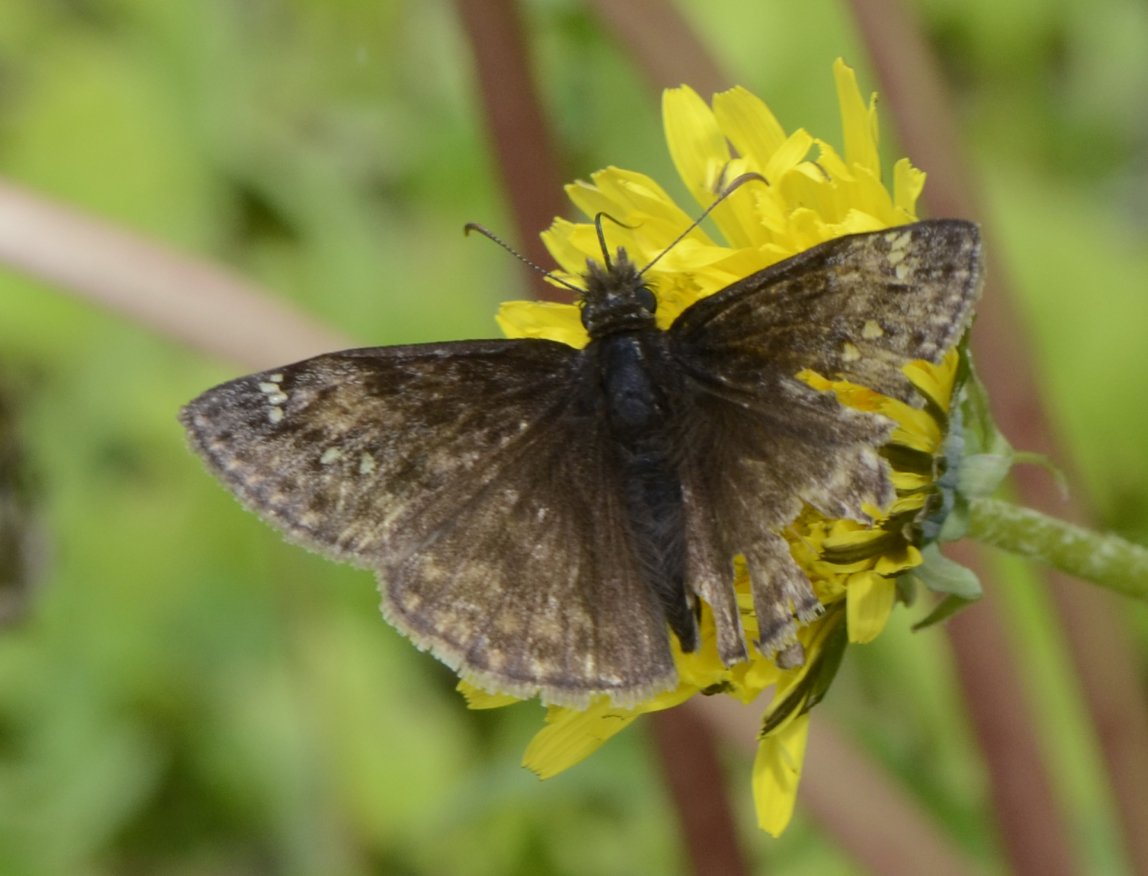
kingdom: Animalia
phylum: Arthropoda
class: Insecta
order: Lepidoptera
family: Hesperiidae
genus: Gesta
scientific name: Gesta
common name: Columbine Duskywing
